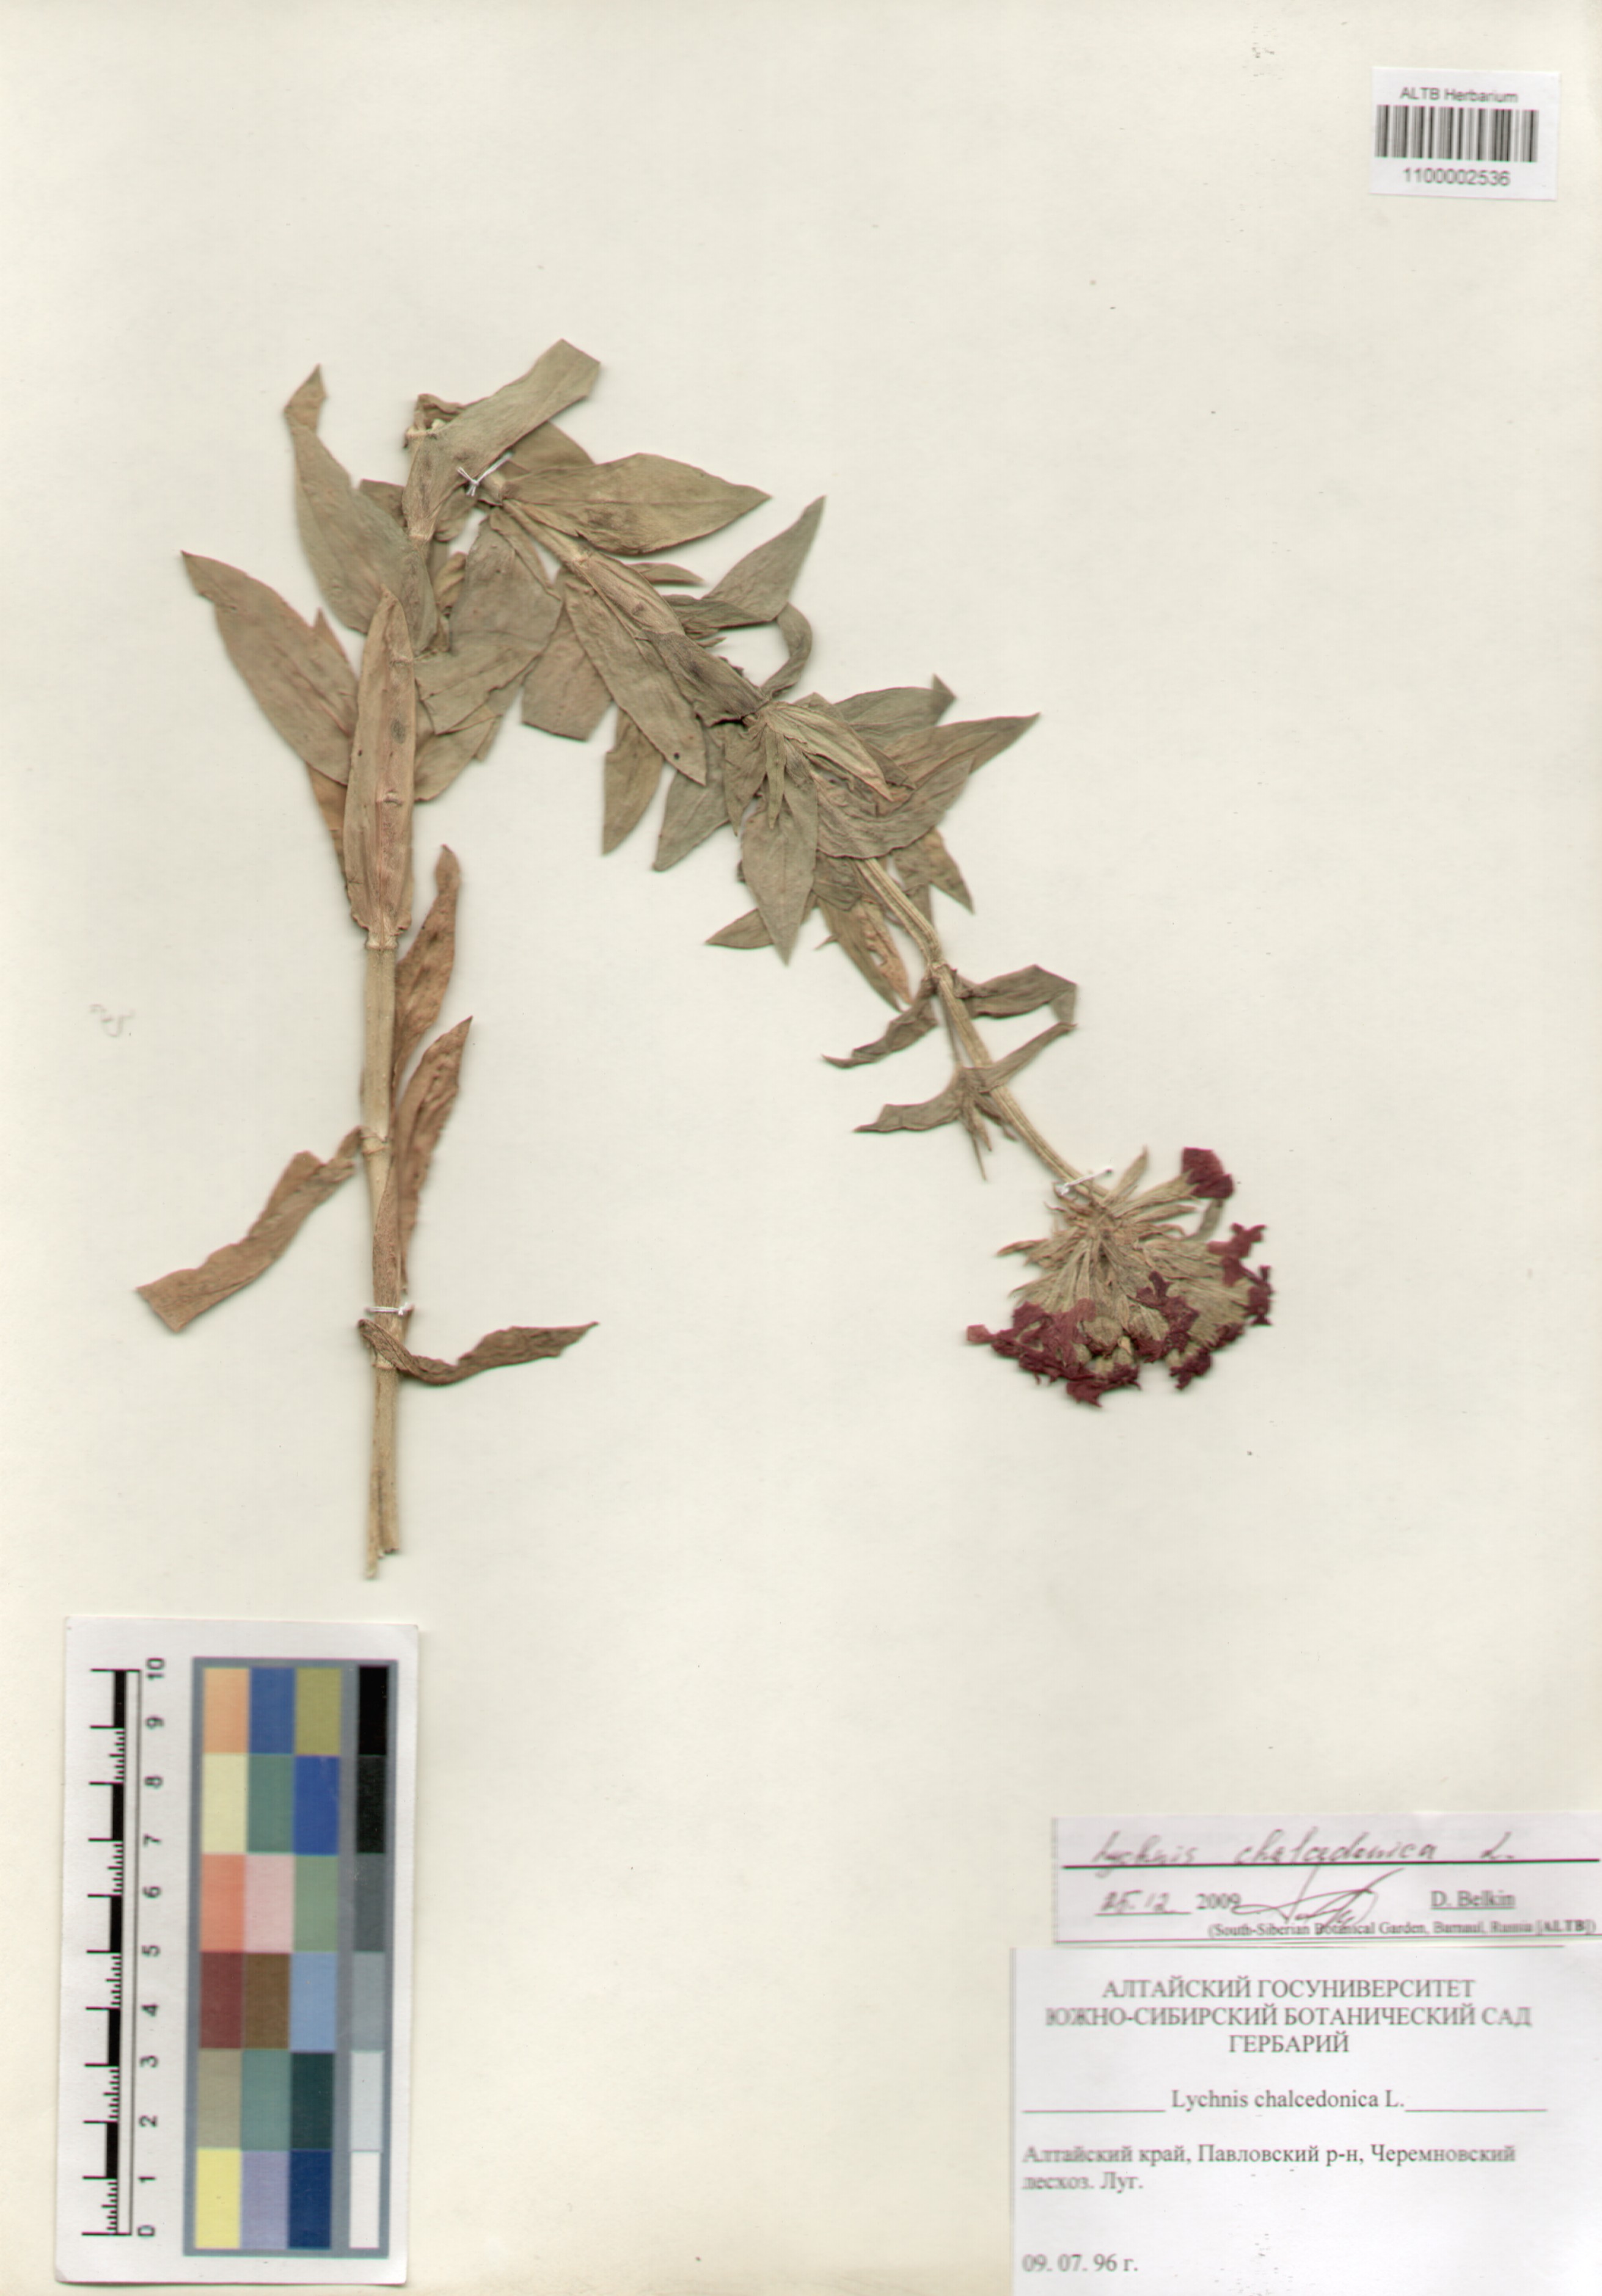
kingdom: Plantae
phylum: Tracheophyta
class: Magnoliopsida
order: Caryophyllales
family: Caryophyllaceae
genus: Silene
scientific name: Silene chalcedonica
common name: Maltese-cross
